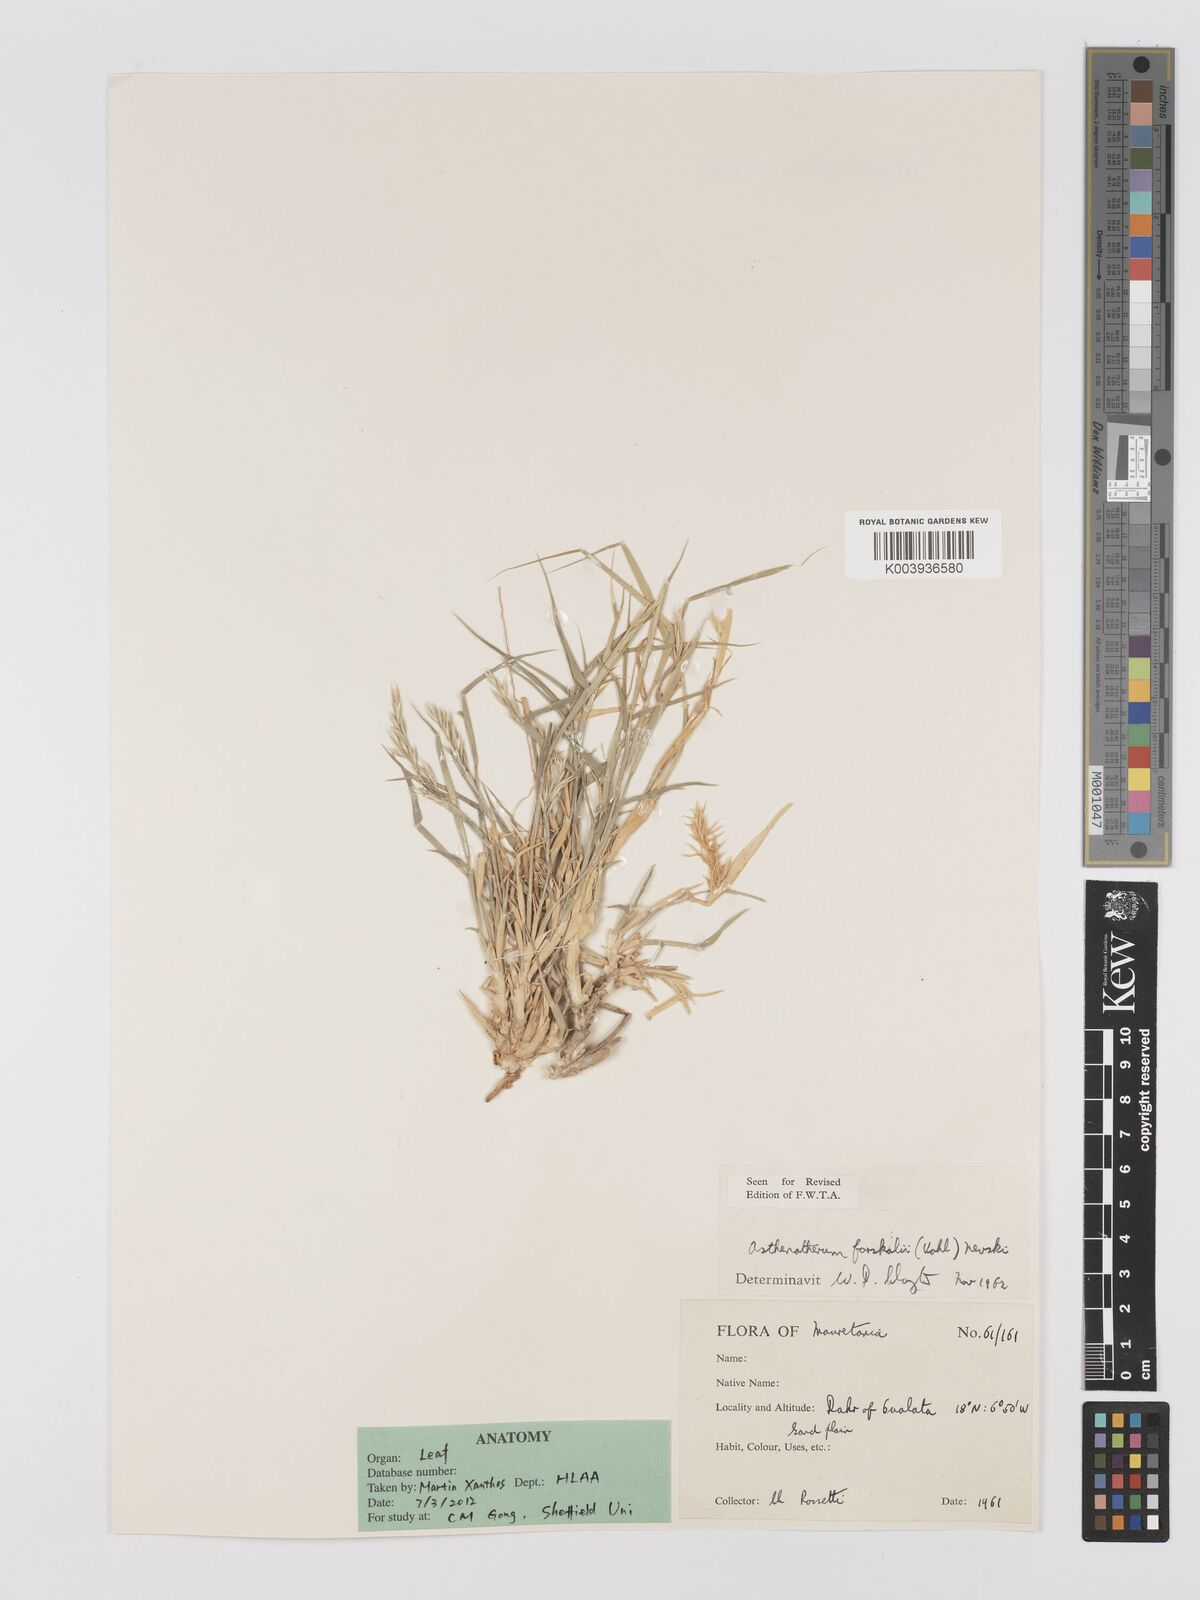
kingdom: Plantae
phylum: Tracheophyta
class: Liliopsida
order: Poales
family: Poaceae
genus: Centropodia
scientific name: Centropodia forskaolii
